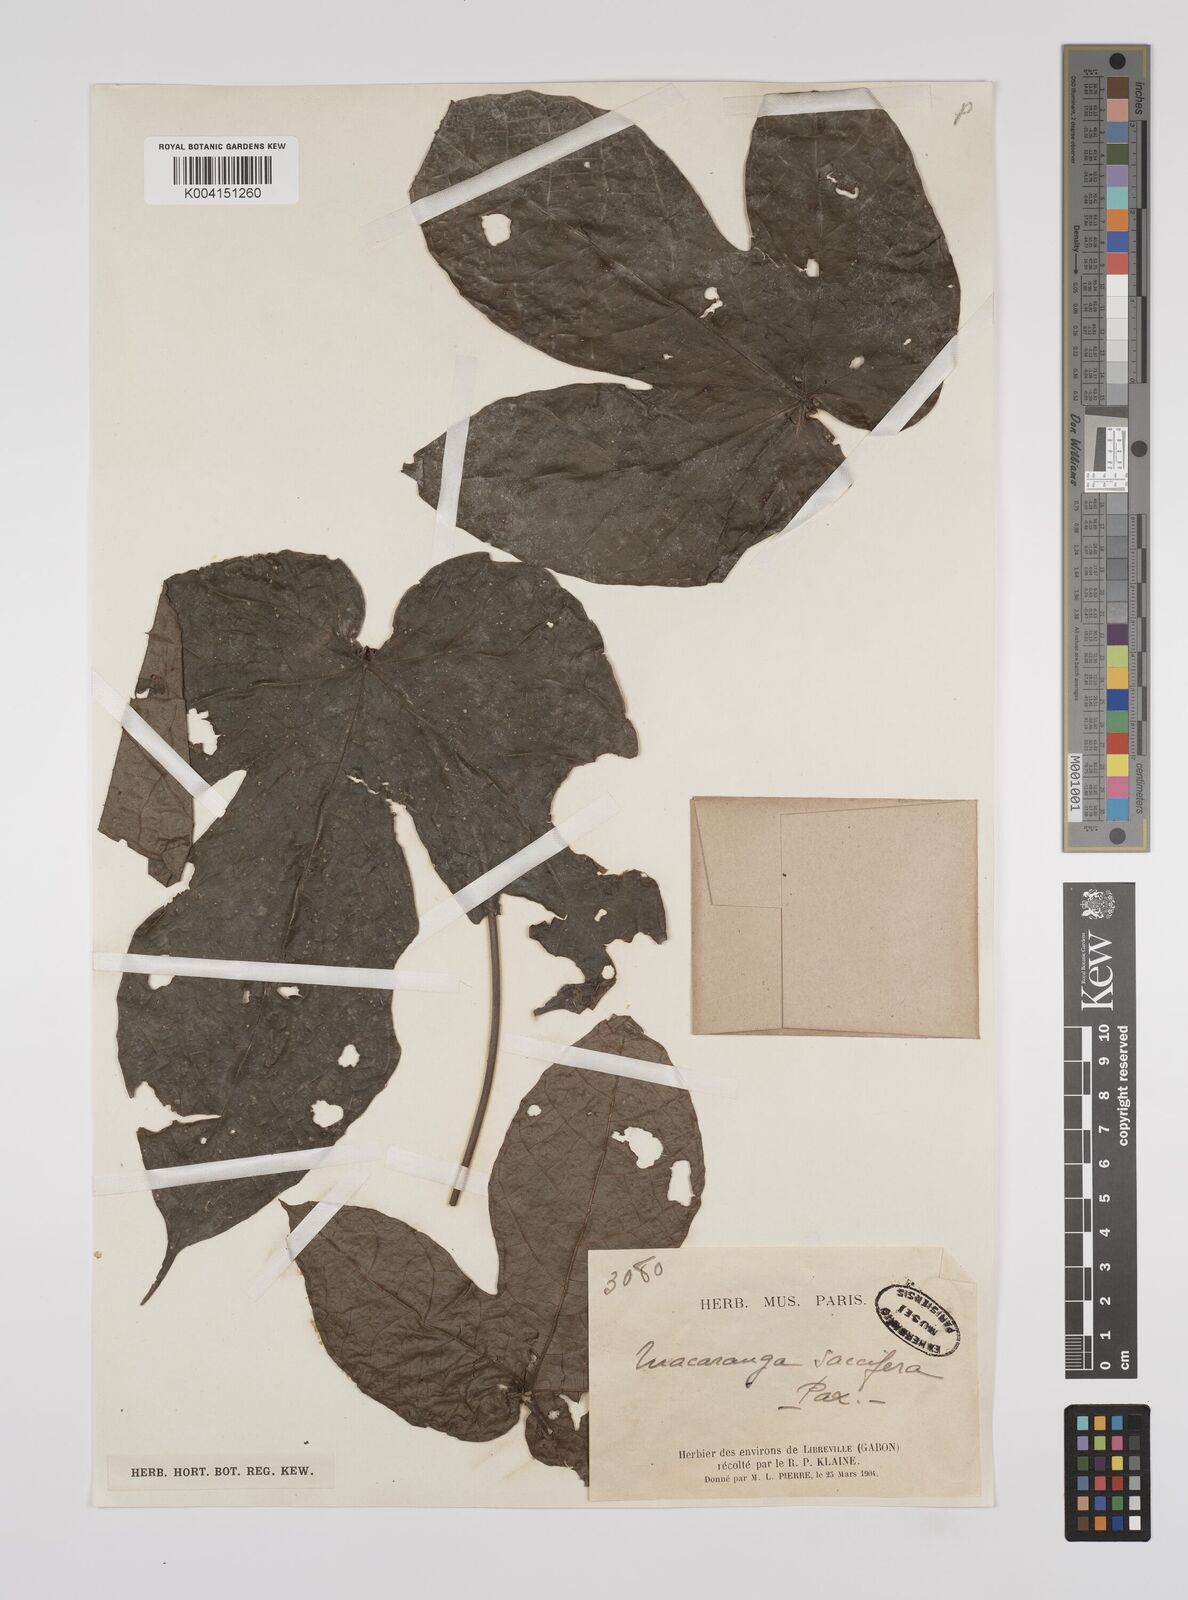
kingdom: Plantae
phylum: Tracheophyta
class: Magnoliopsida
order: Malpighiales
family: Euphorbiaceae
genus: Macaranga
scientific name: Macaranga saccifera
